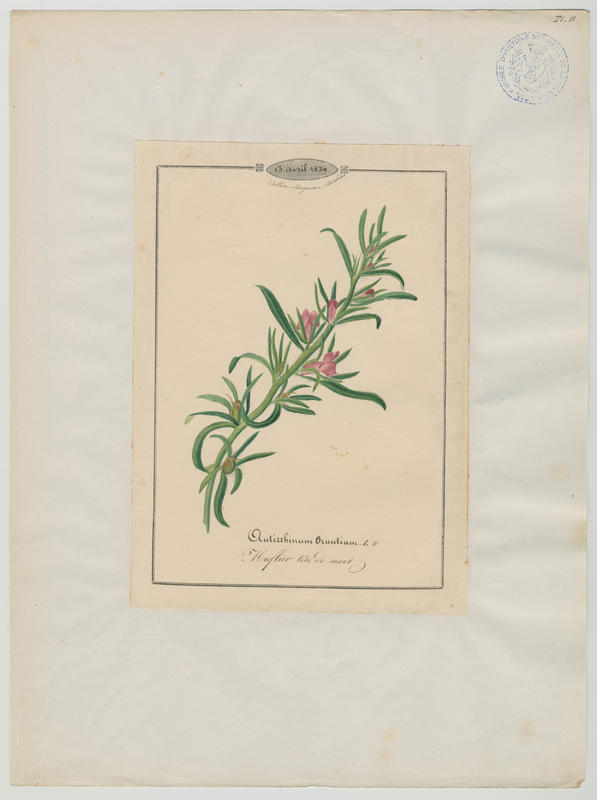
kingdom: Plantae
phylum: Tracheophyta
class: Magnoliopsida
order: Lamiales
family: Plantaginaceae
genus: Misopates
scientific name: Misopates orontium
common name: Weasel's-snout
